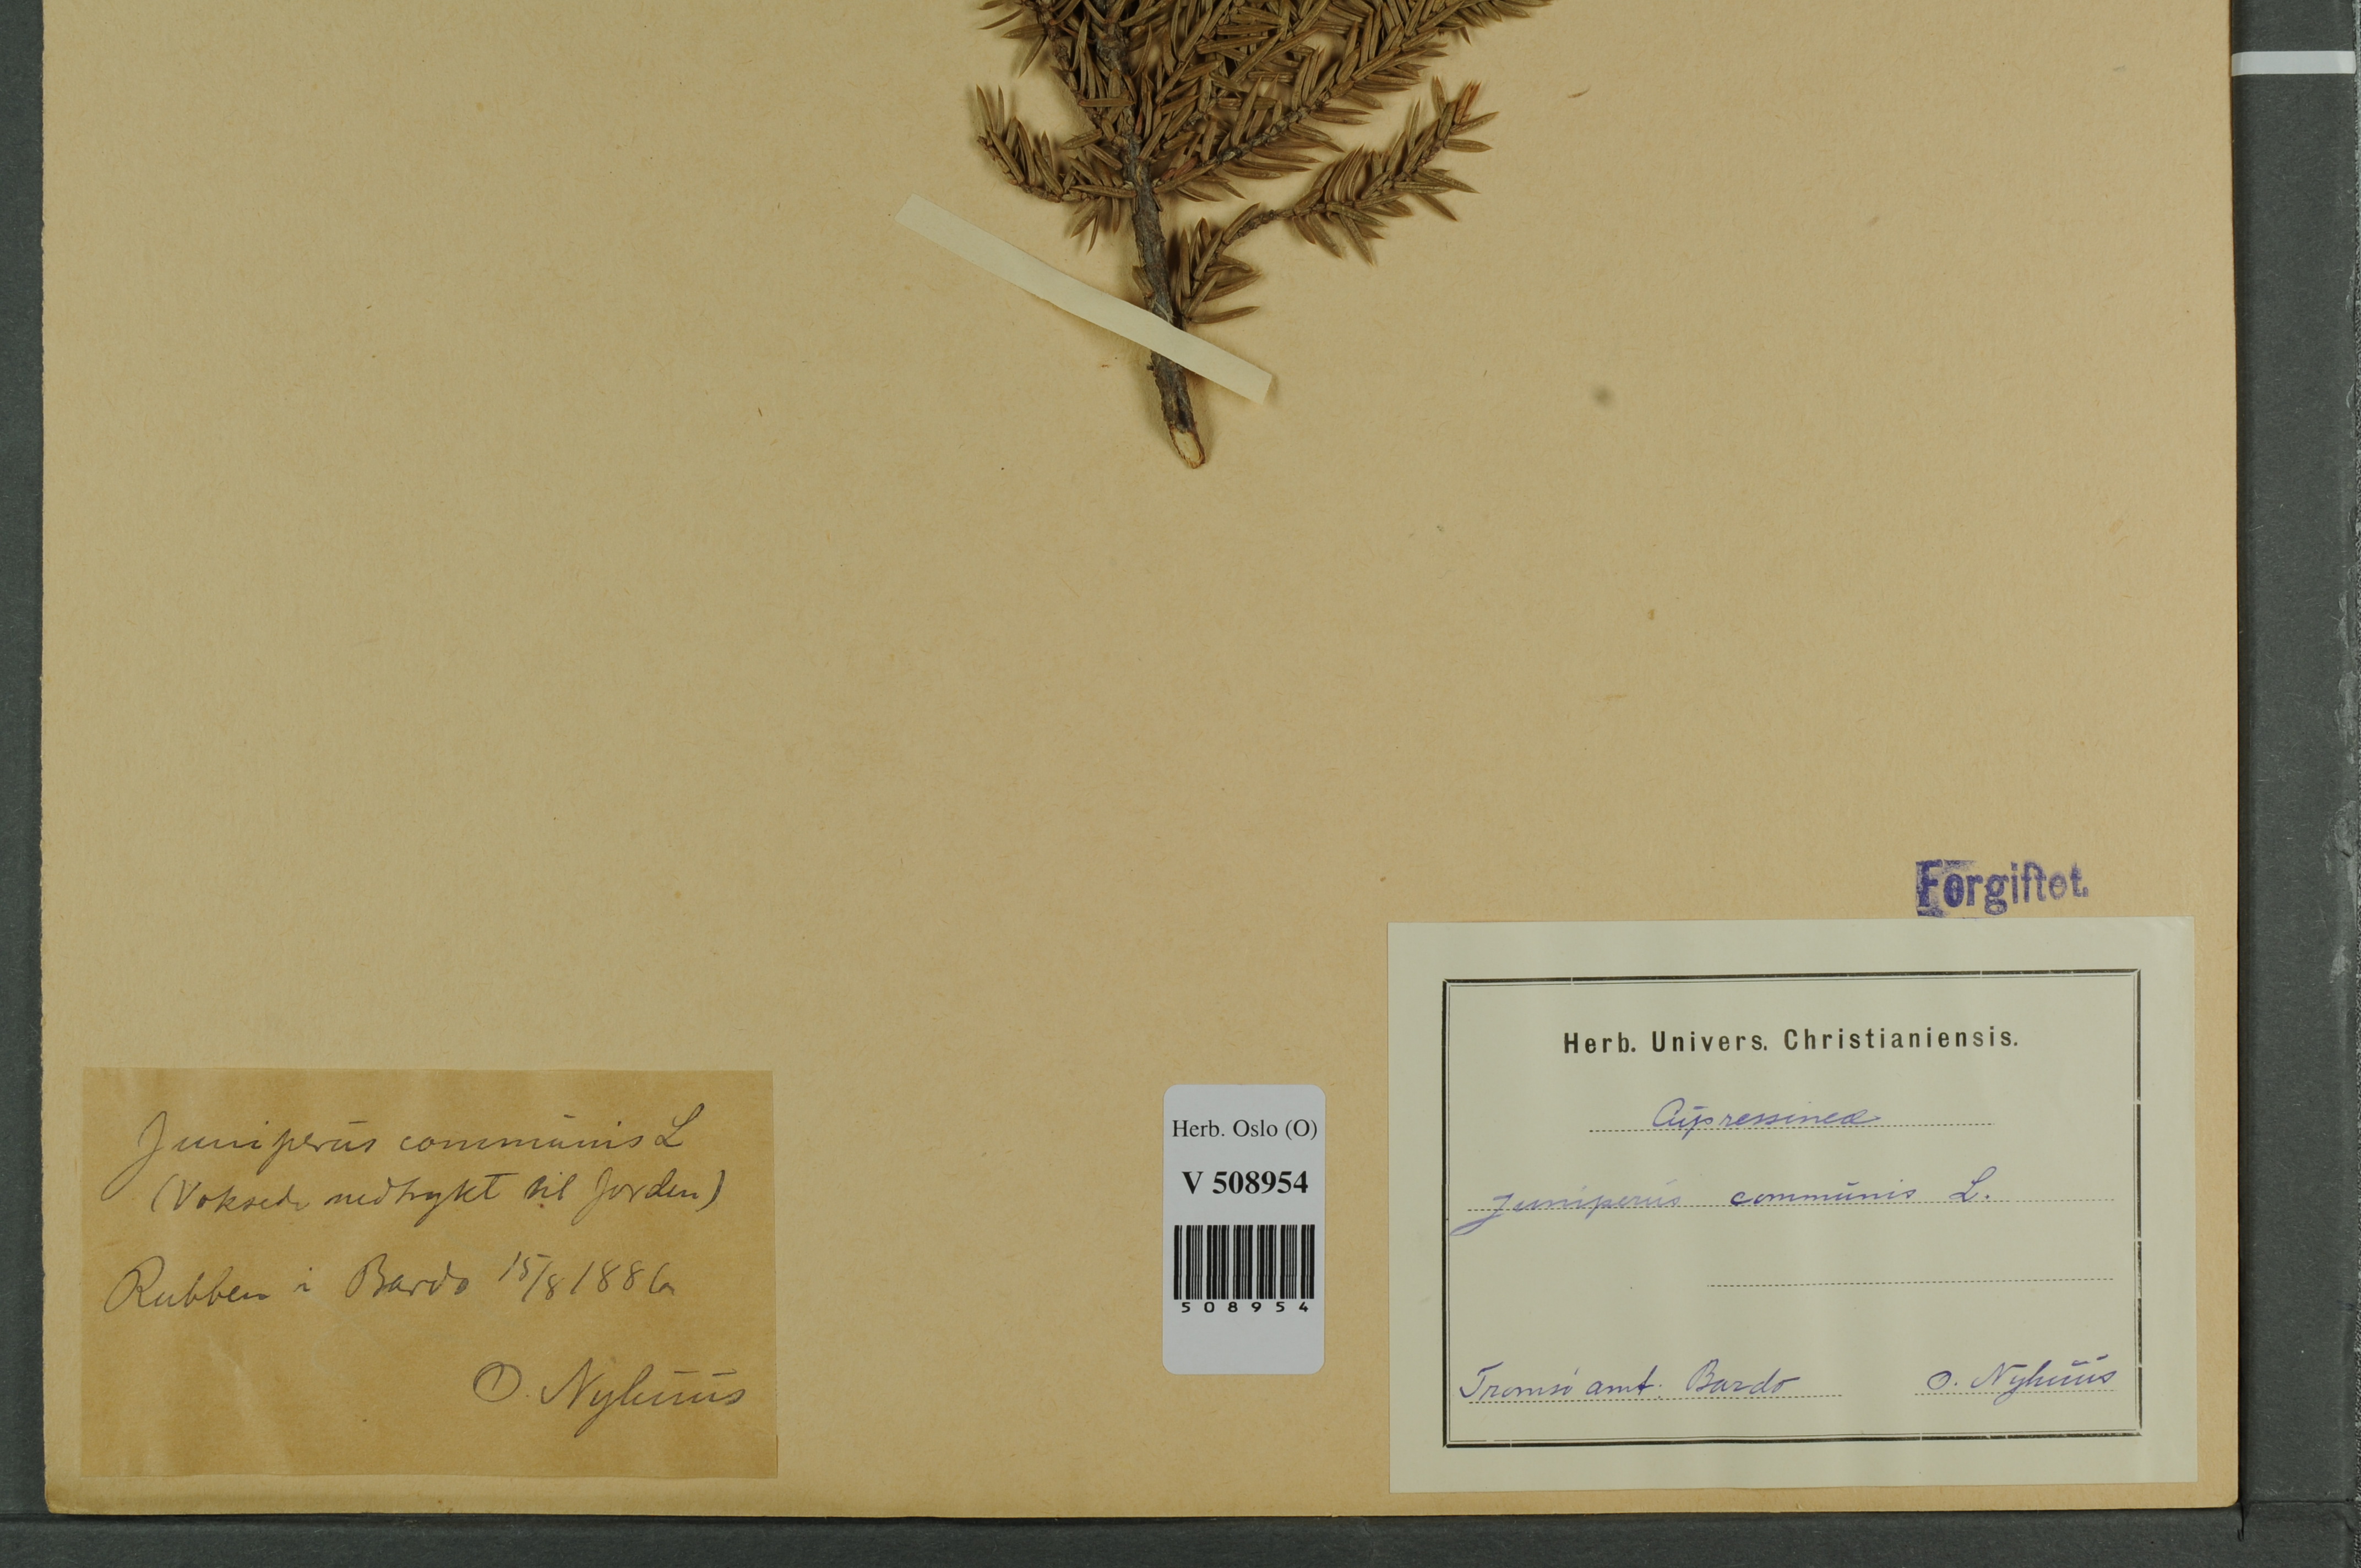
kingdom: Plantae
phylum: Tracheophyta
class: Pinopsida
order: Pinales
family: Cupressaceae
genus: Juniperus
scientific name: Juniperus communis
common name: Common juniper
